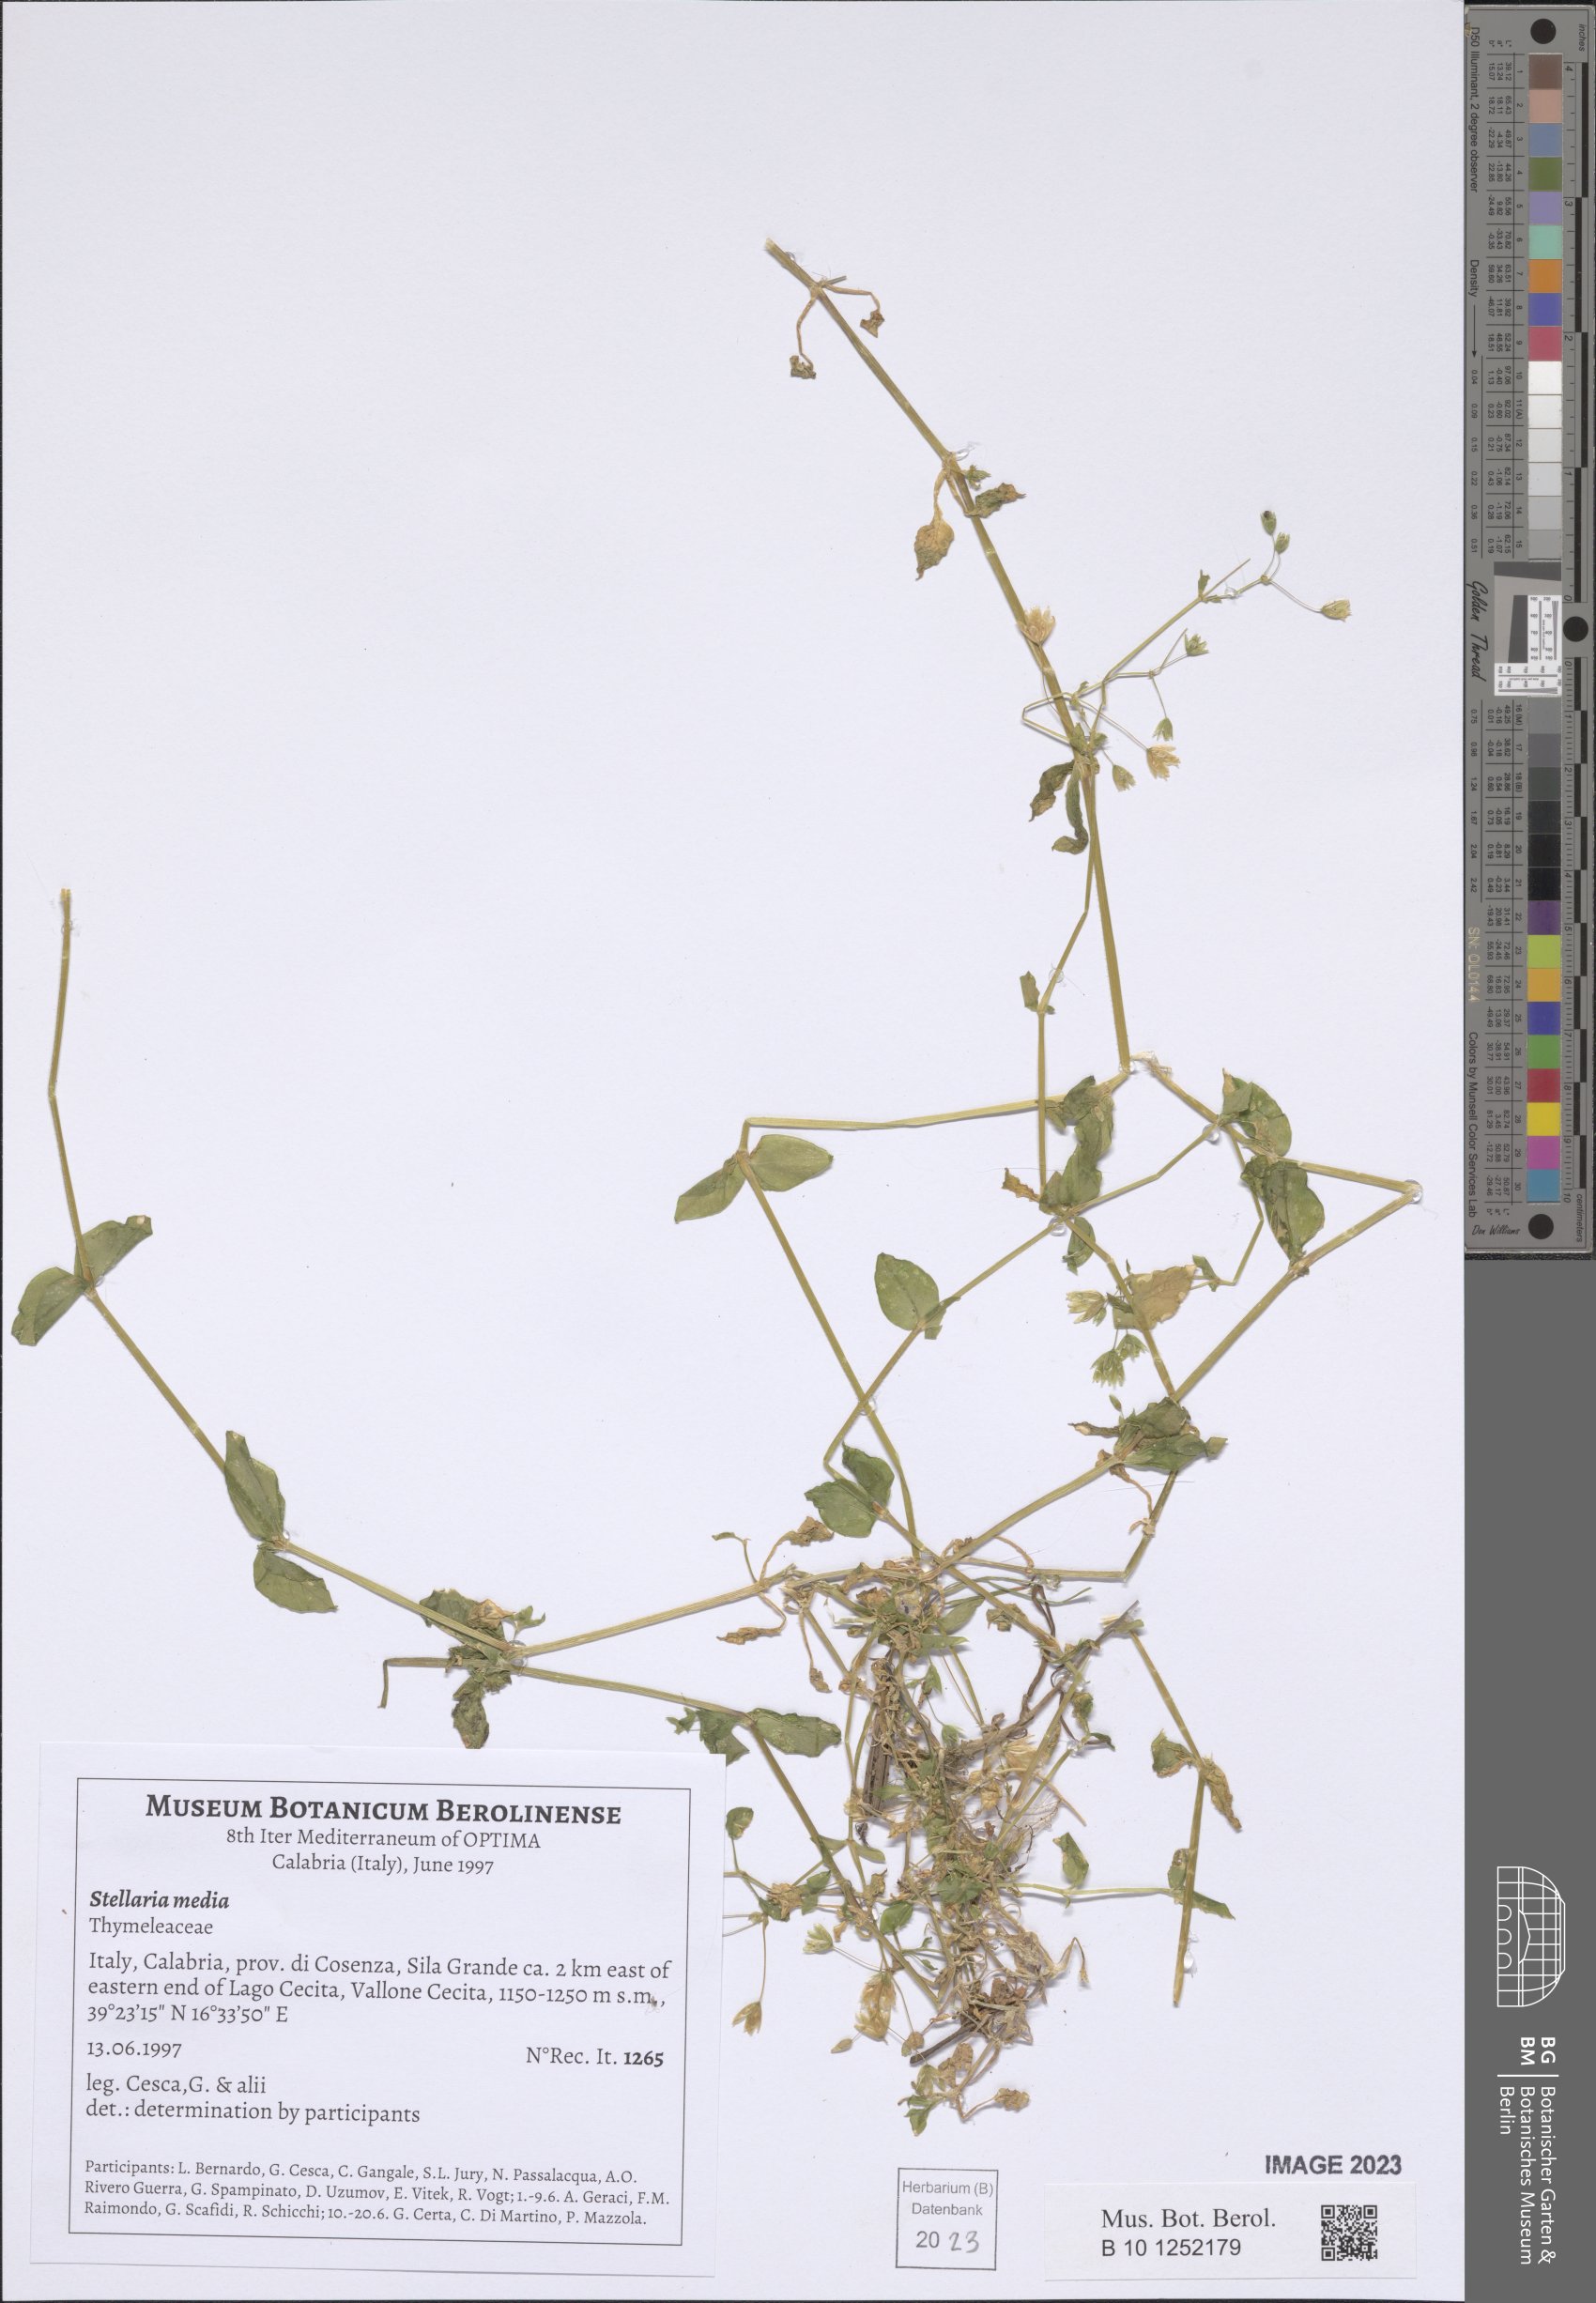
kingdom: Plantae
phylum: Tracheophyta
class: Magnoliopsida
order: Caryophyllales
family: Caryophyllaceae
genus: Stellaria
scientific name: Stellaria media
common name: Common chickweed
